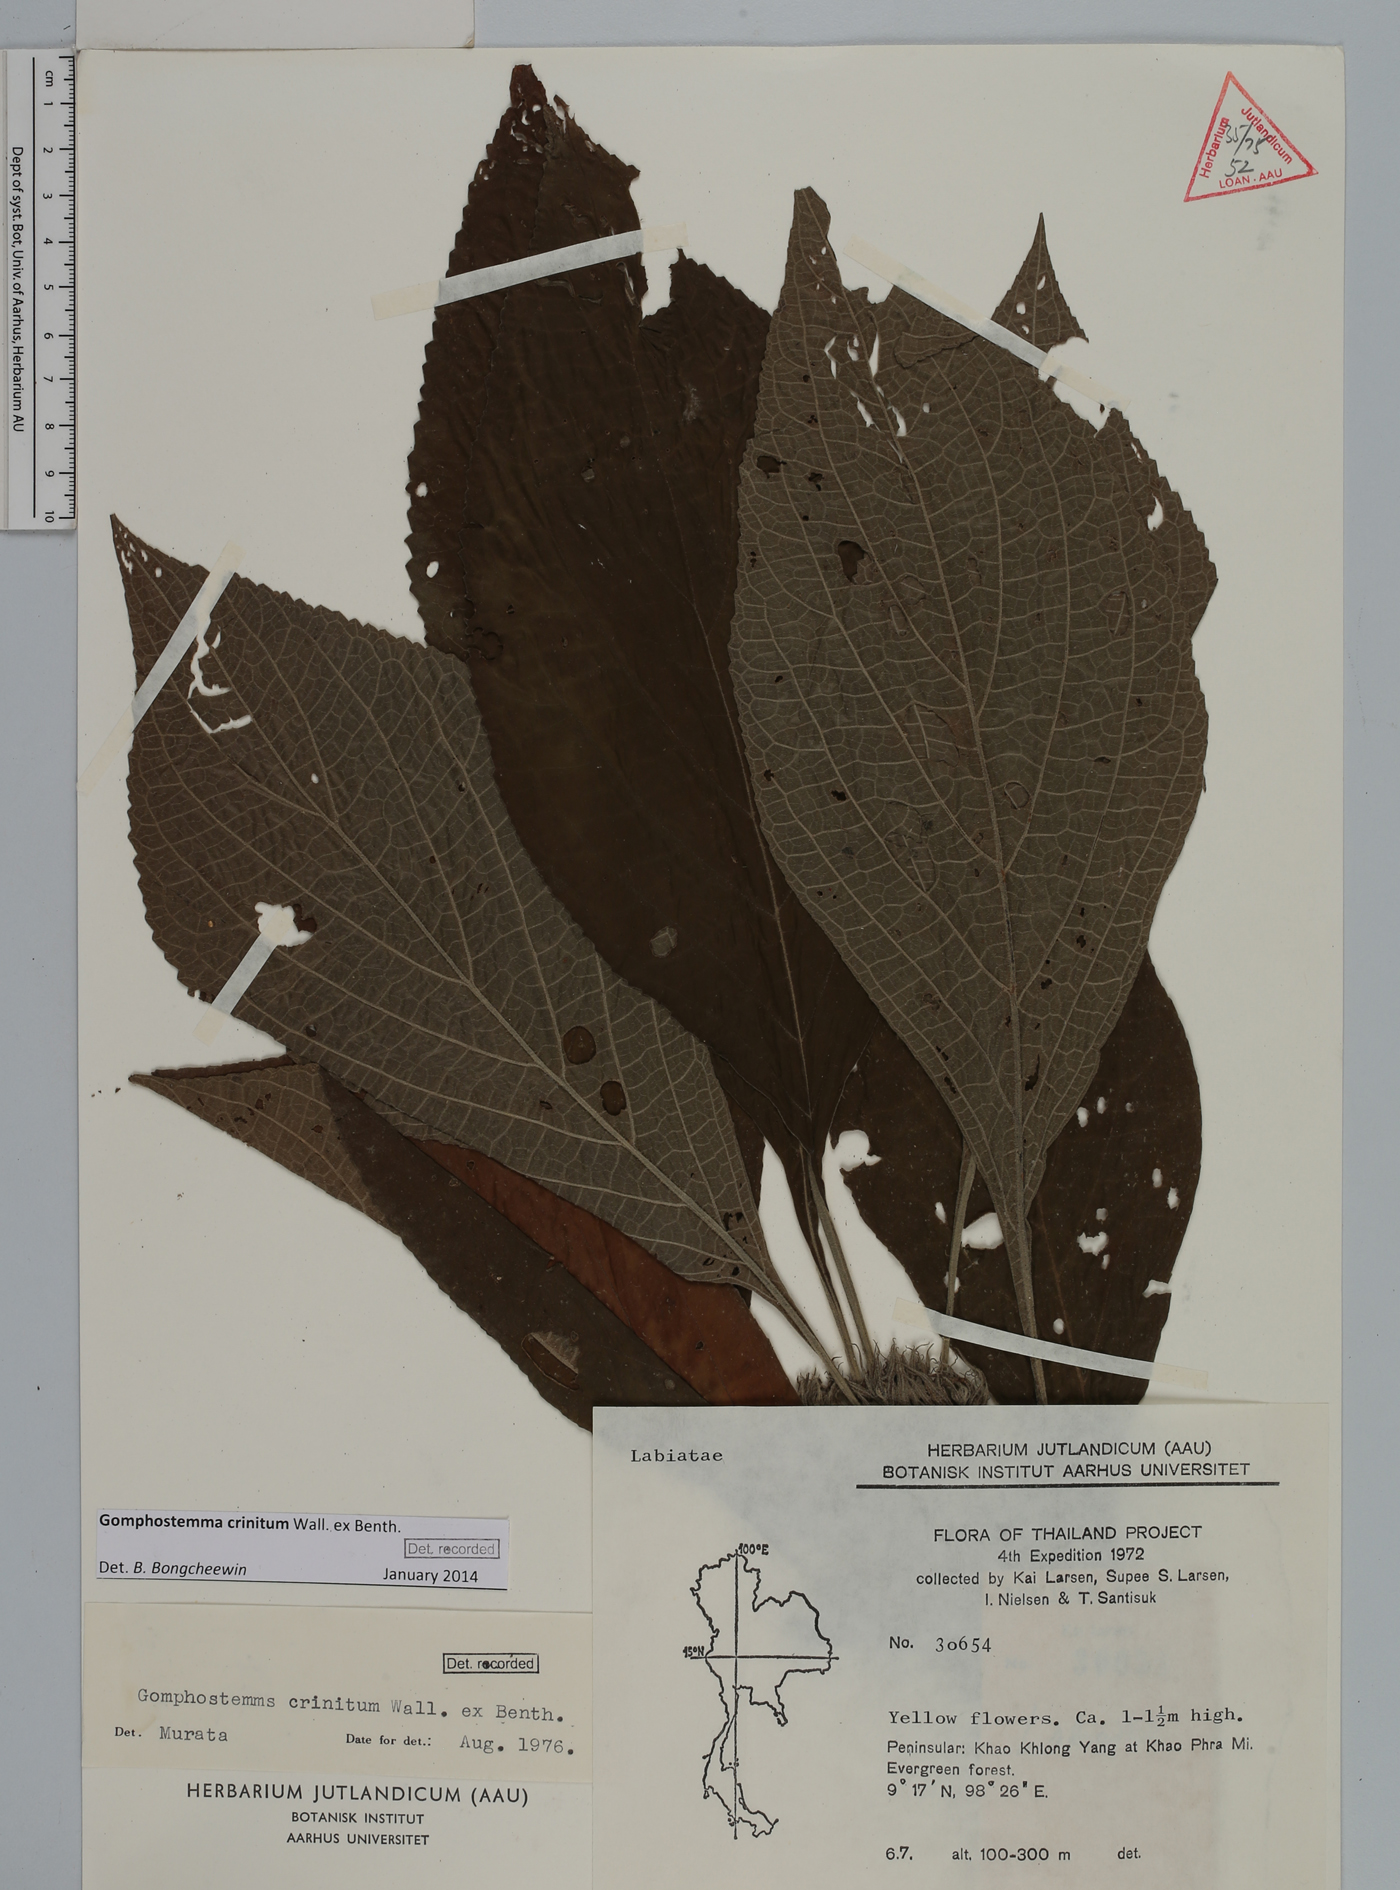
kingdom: Plantae
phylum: Tracheophyta
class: Magnoliopsida
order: Lamiales
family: Lamiaceae
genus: Gomphostemma
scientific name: Gomphostemma crinitum
